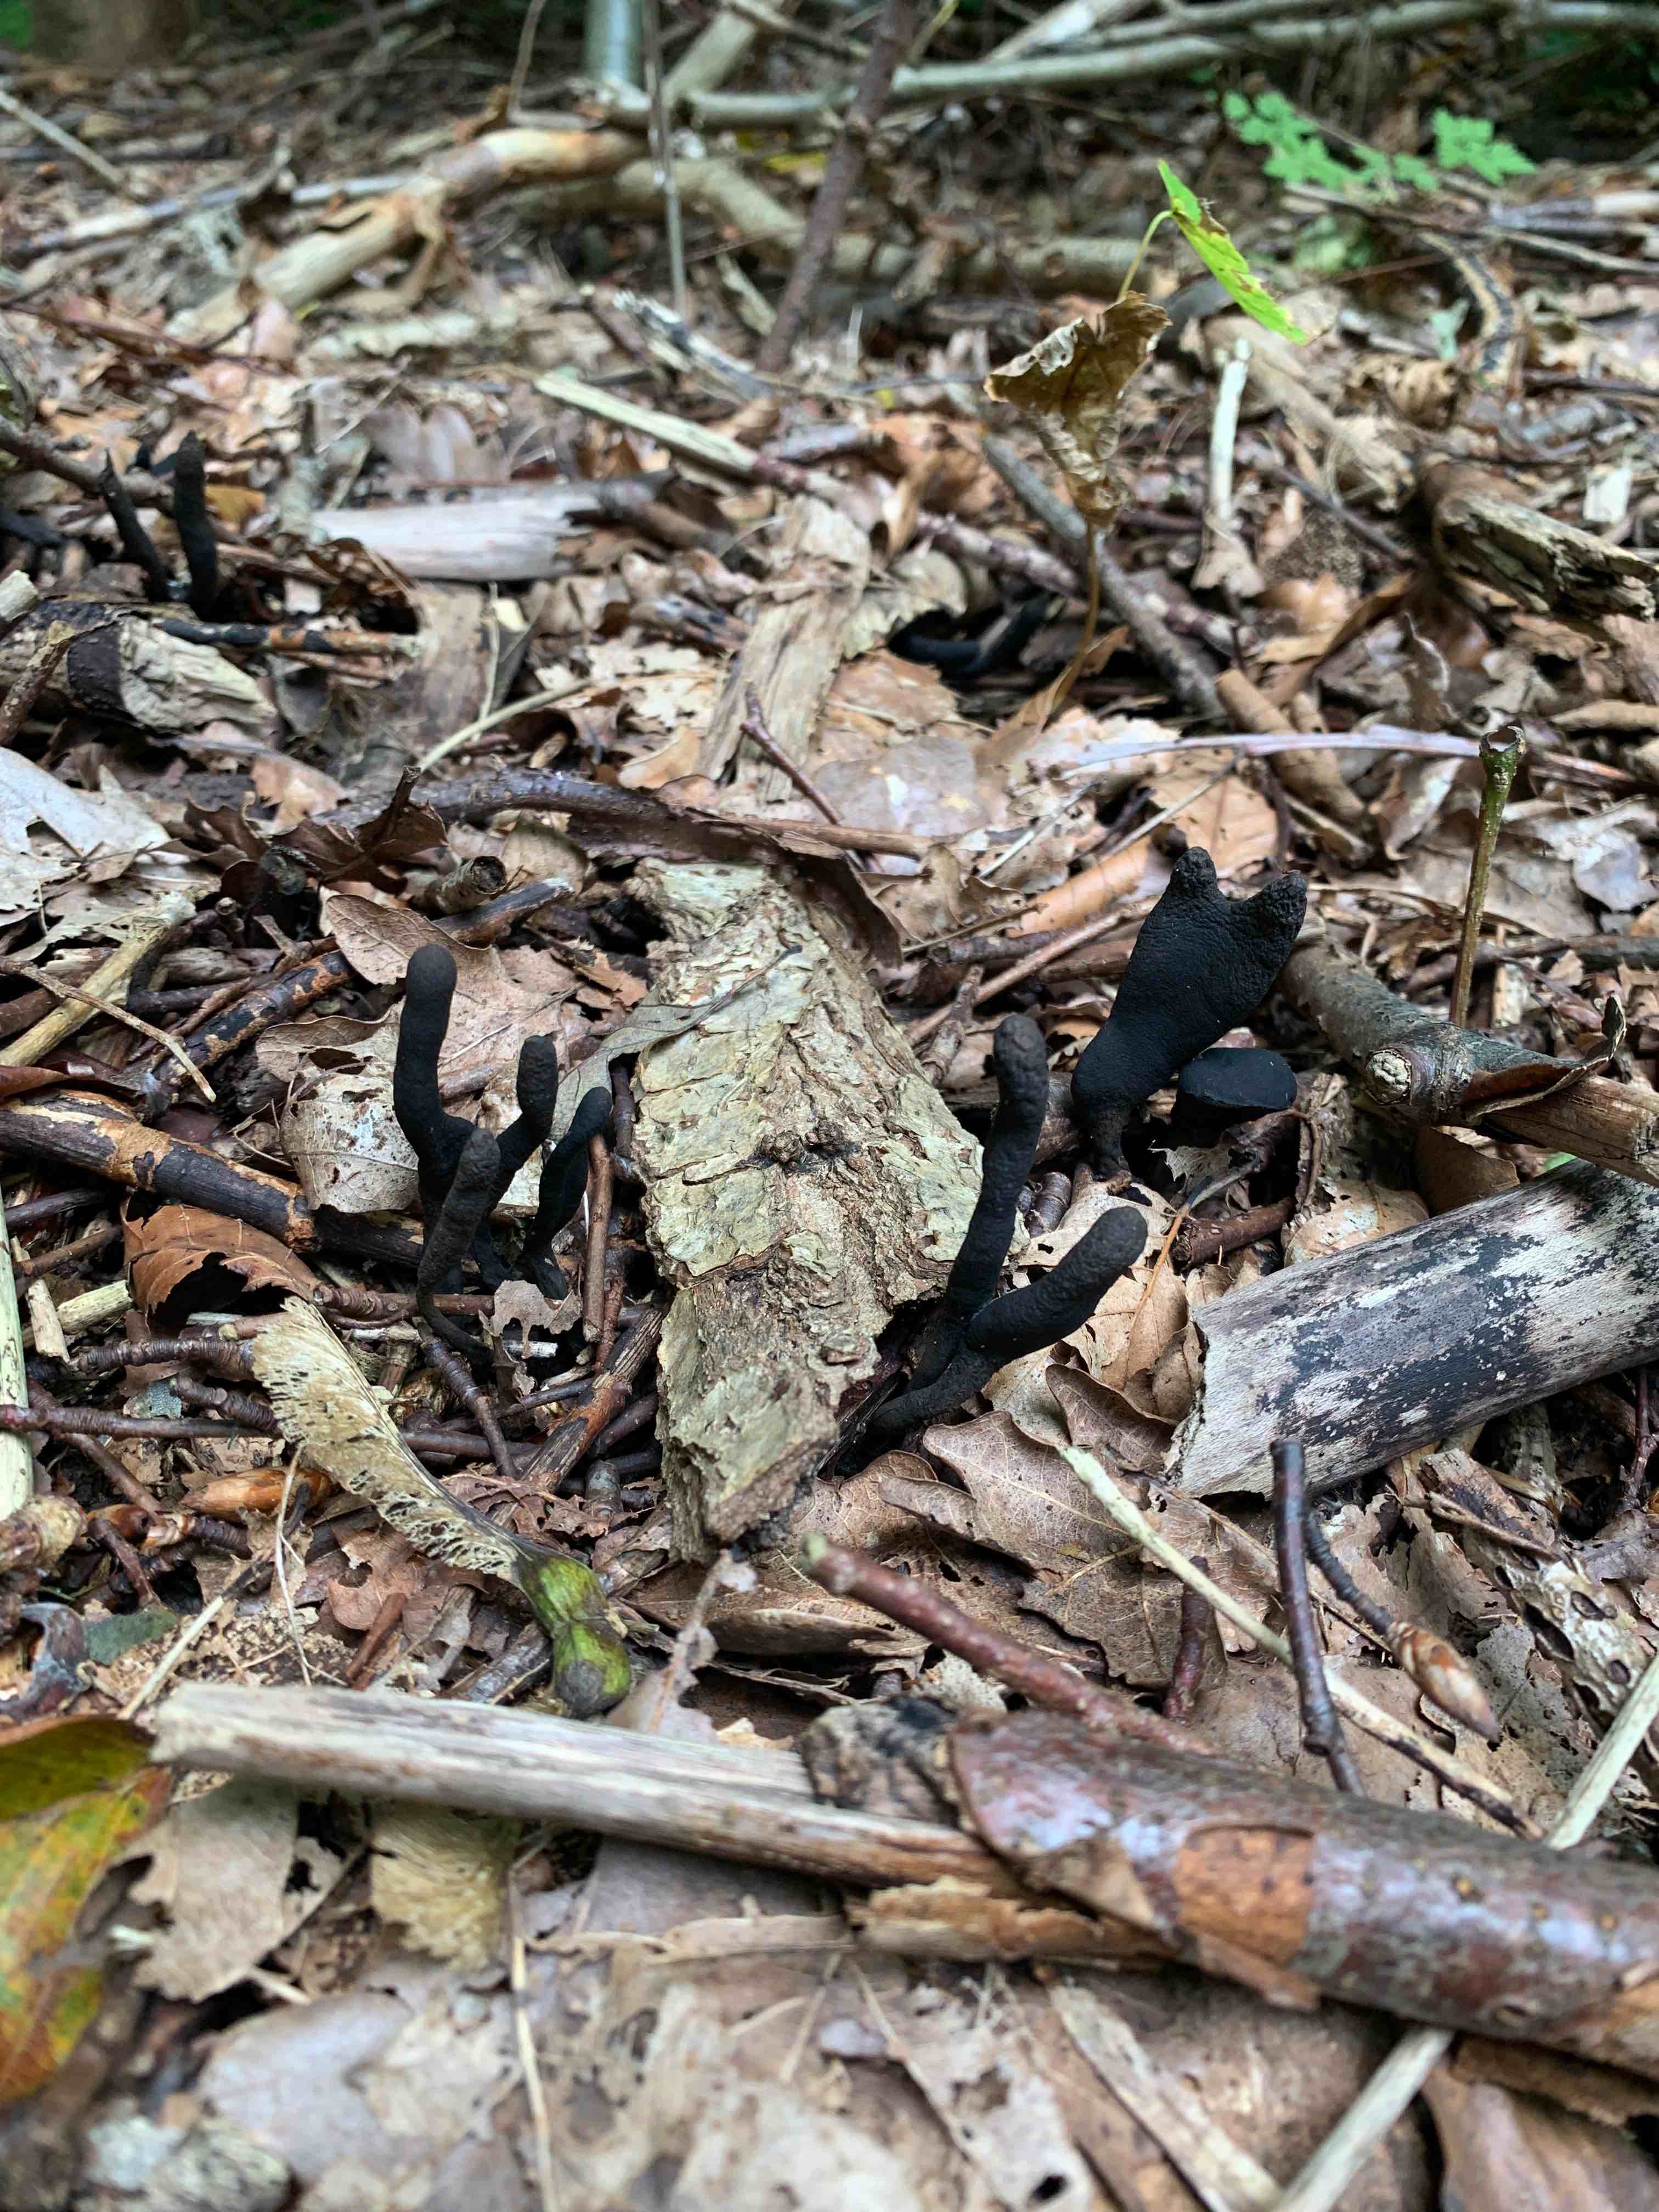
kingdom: Fungi
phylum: Ascomycota
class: Sordariomycetes
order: Xylariales
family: Xylariaceae
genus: Xylaria
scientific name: Xylaria longipes
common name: slank stødsvamp
